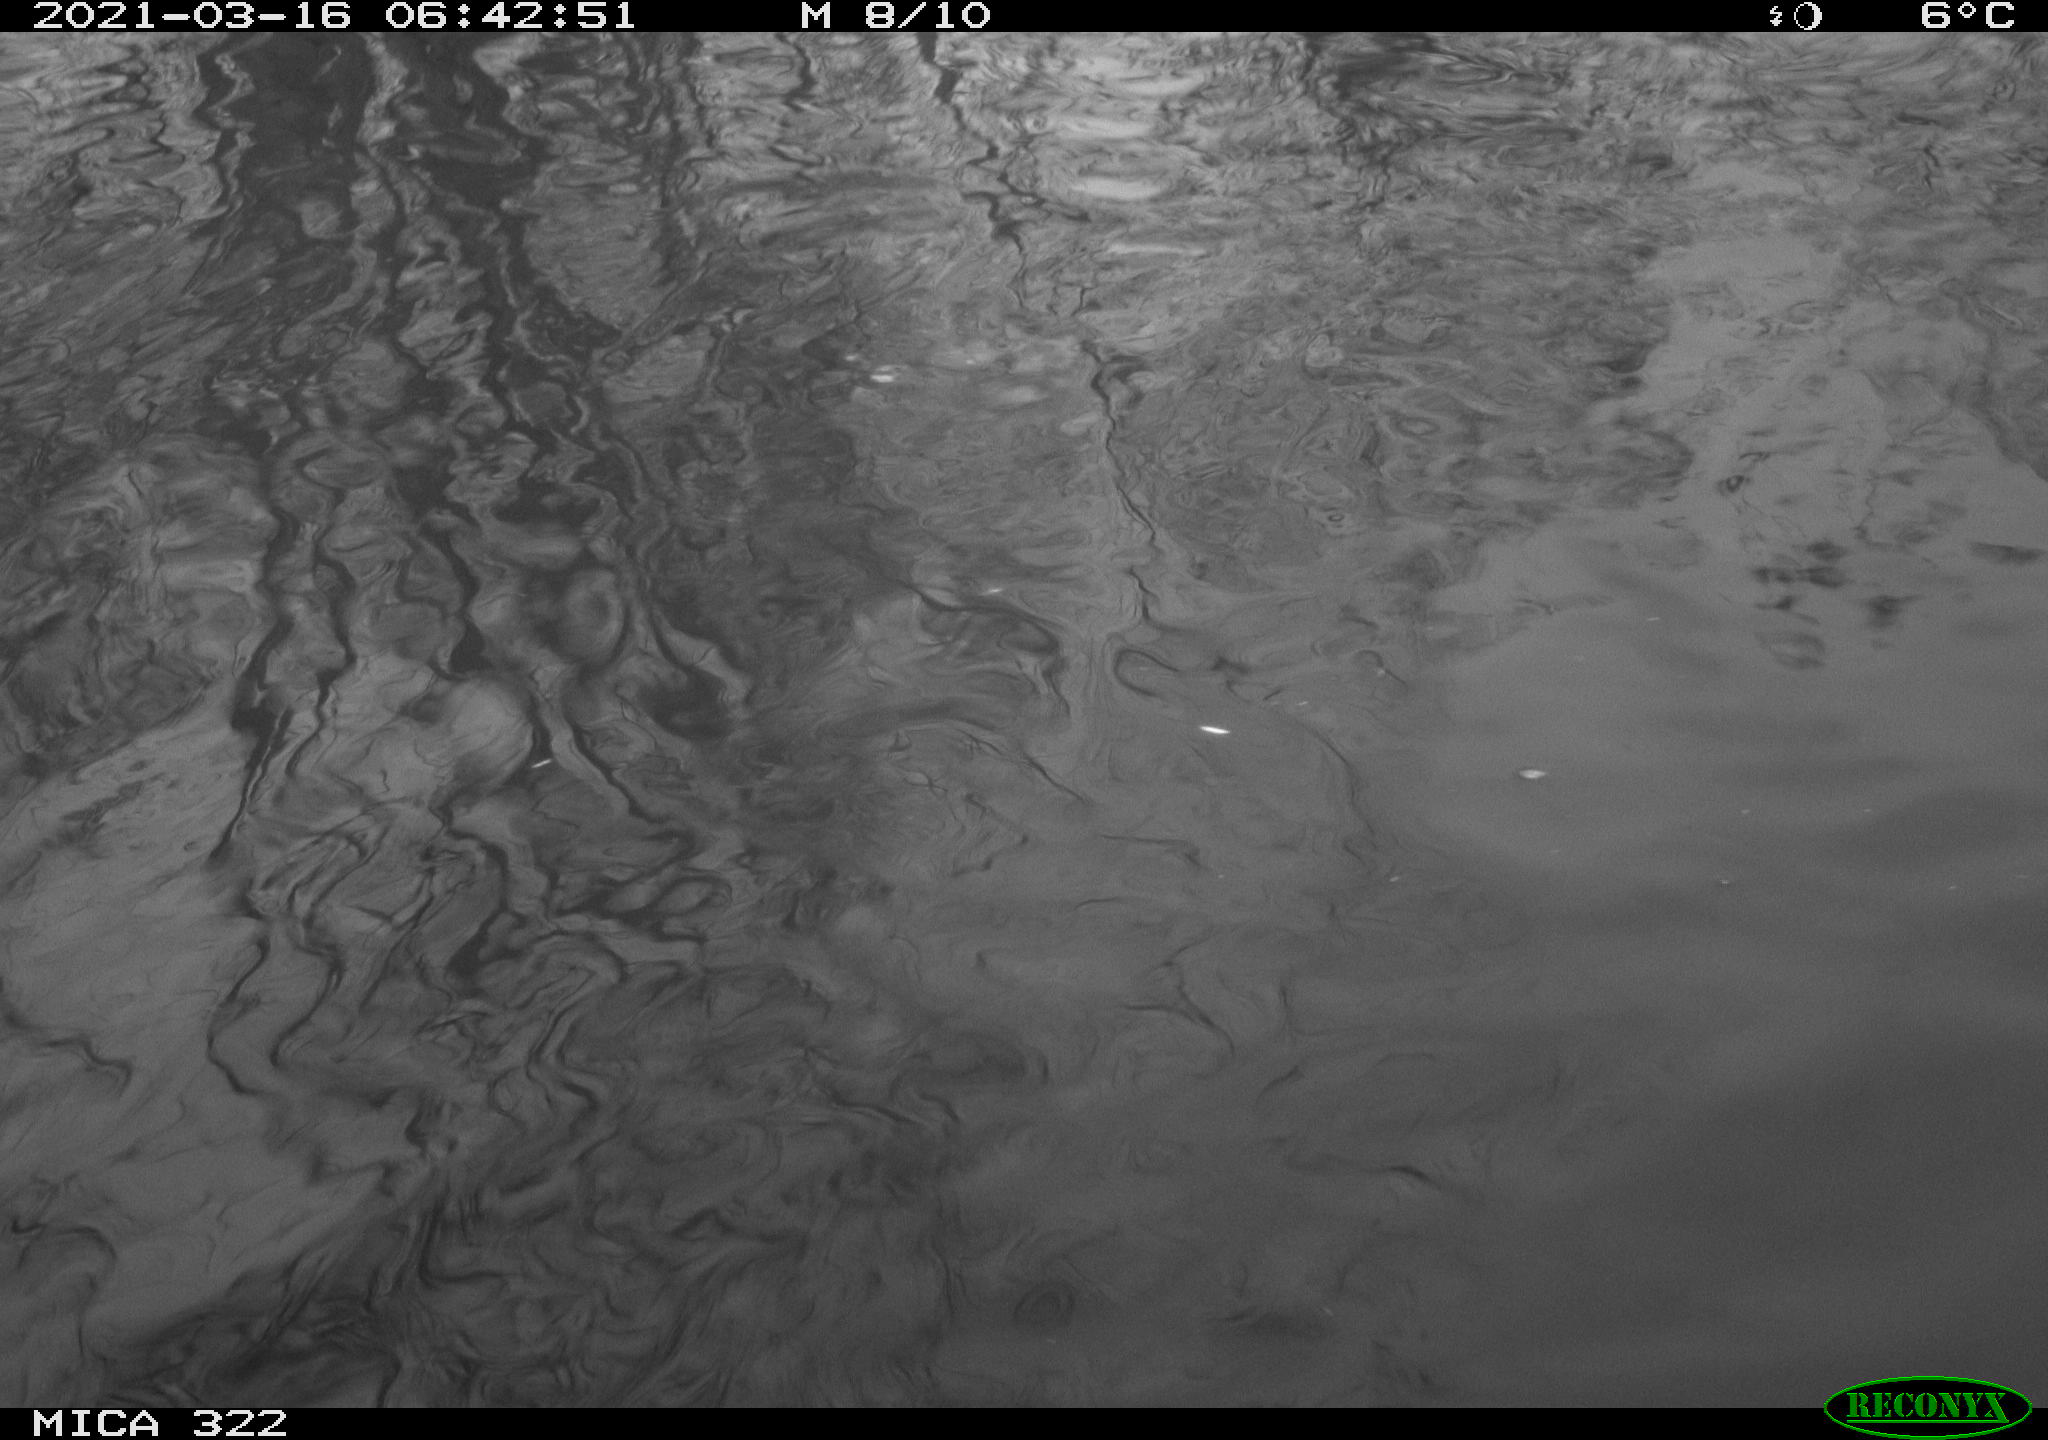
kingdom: Animalia
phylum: Chordata
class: Aves
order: Anseriformes
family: Anatidae
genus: Anas
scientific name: Anas platyrhynchos
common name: Mallard
